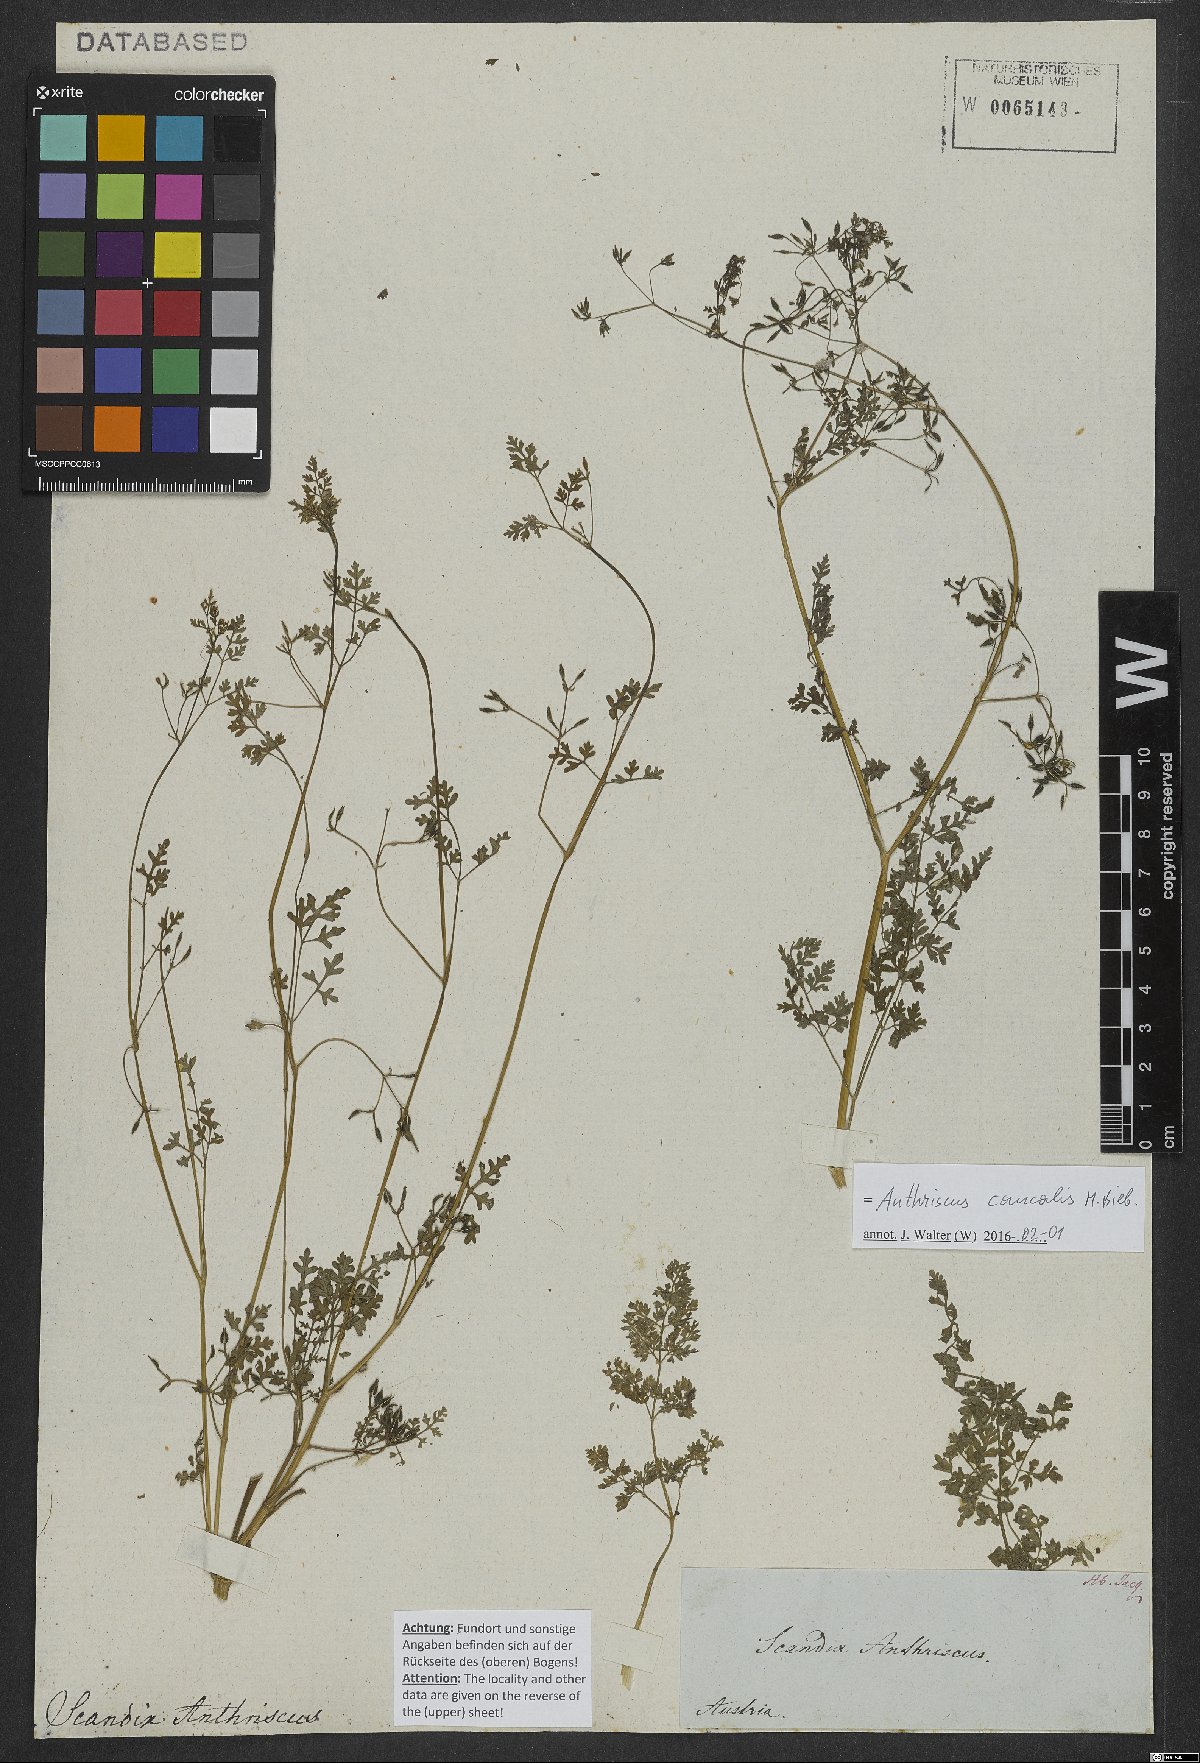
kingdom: Plantae
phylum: Tracheophyta
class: Magnoliopsida
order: Apiales
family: Apiaceae
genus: Anthriscus
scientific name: Anthriscus caucalis
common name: Bur chervil
